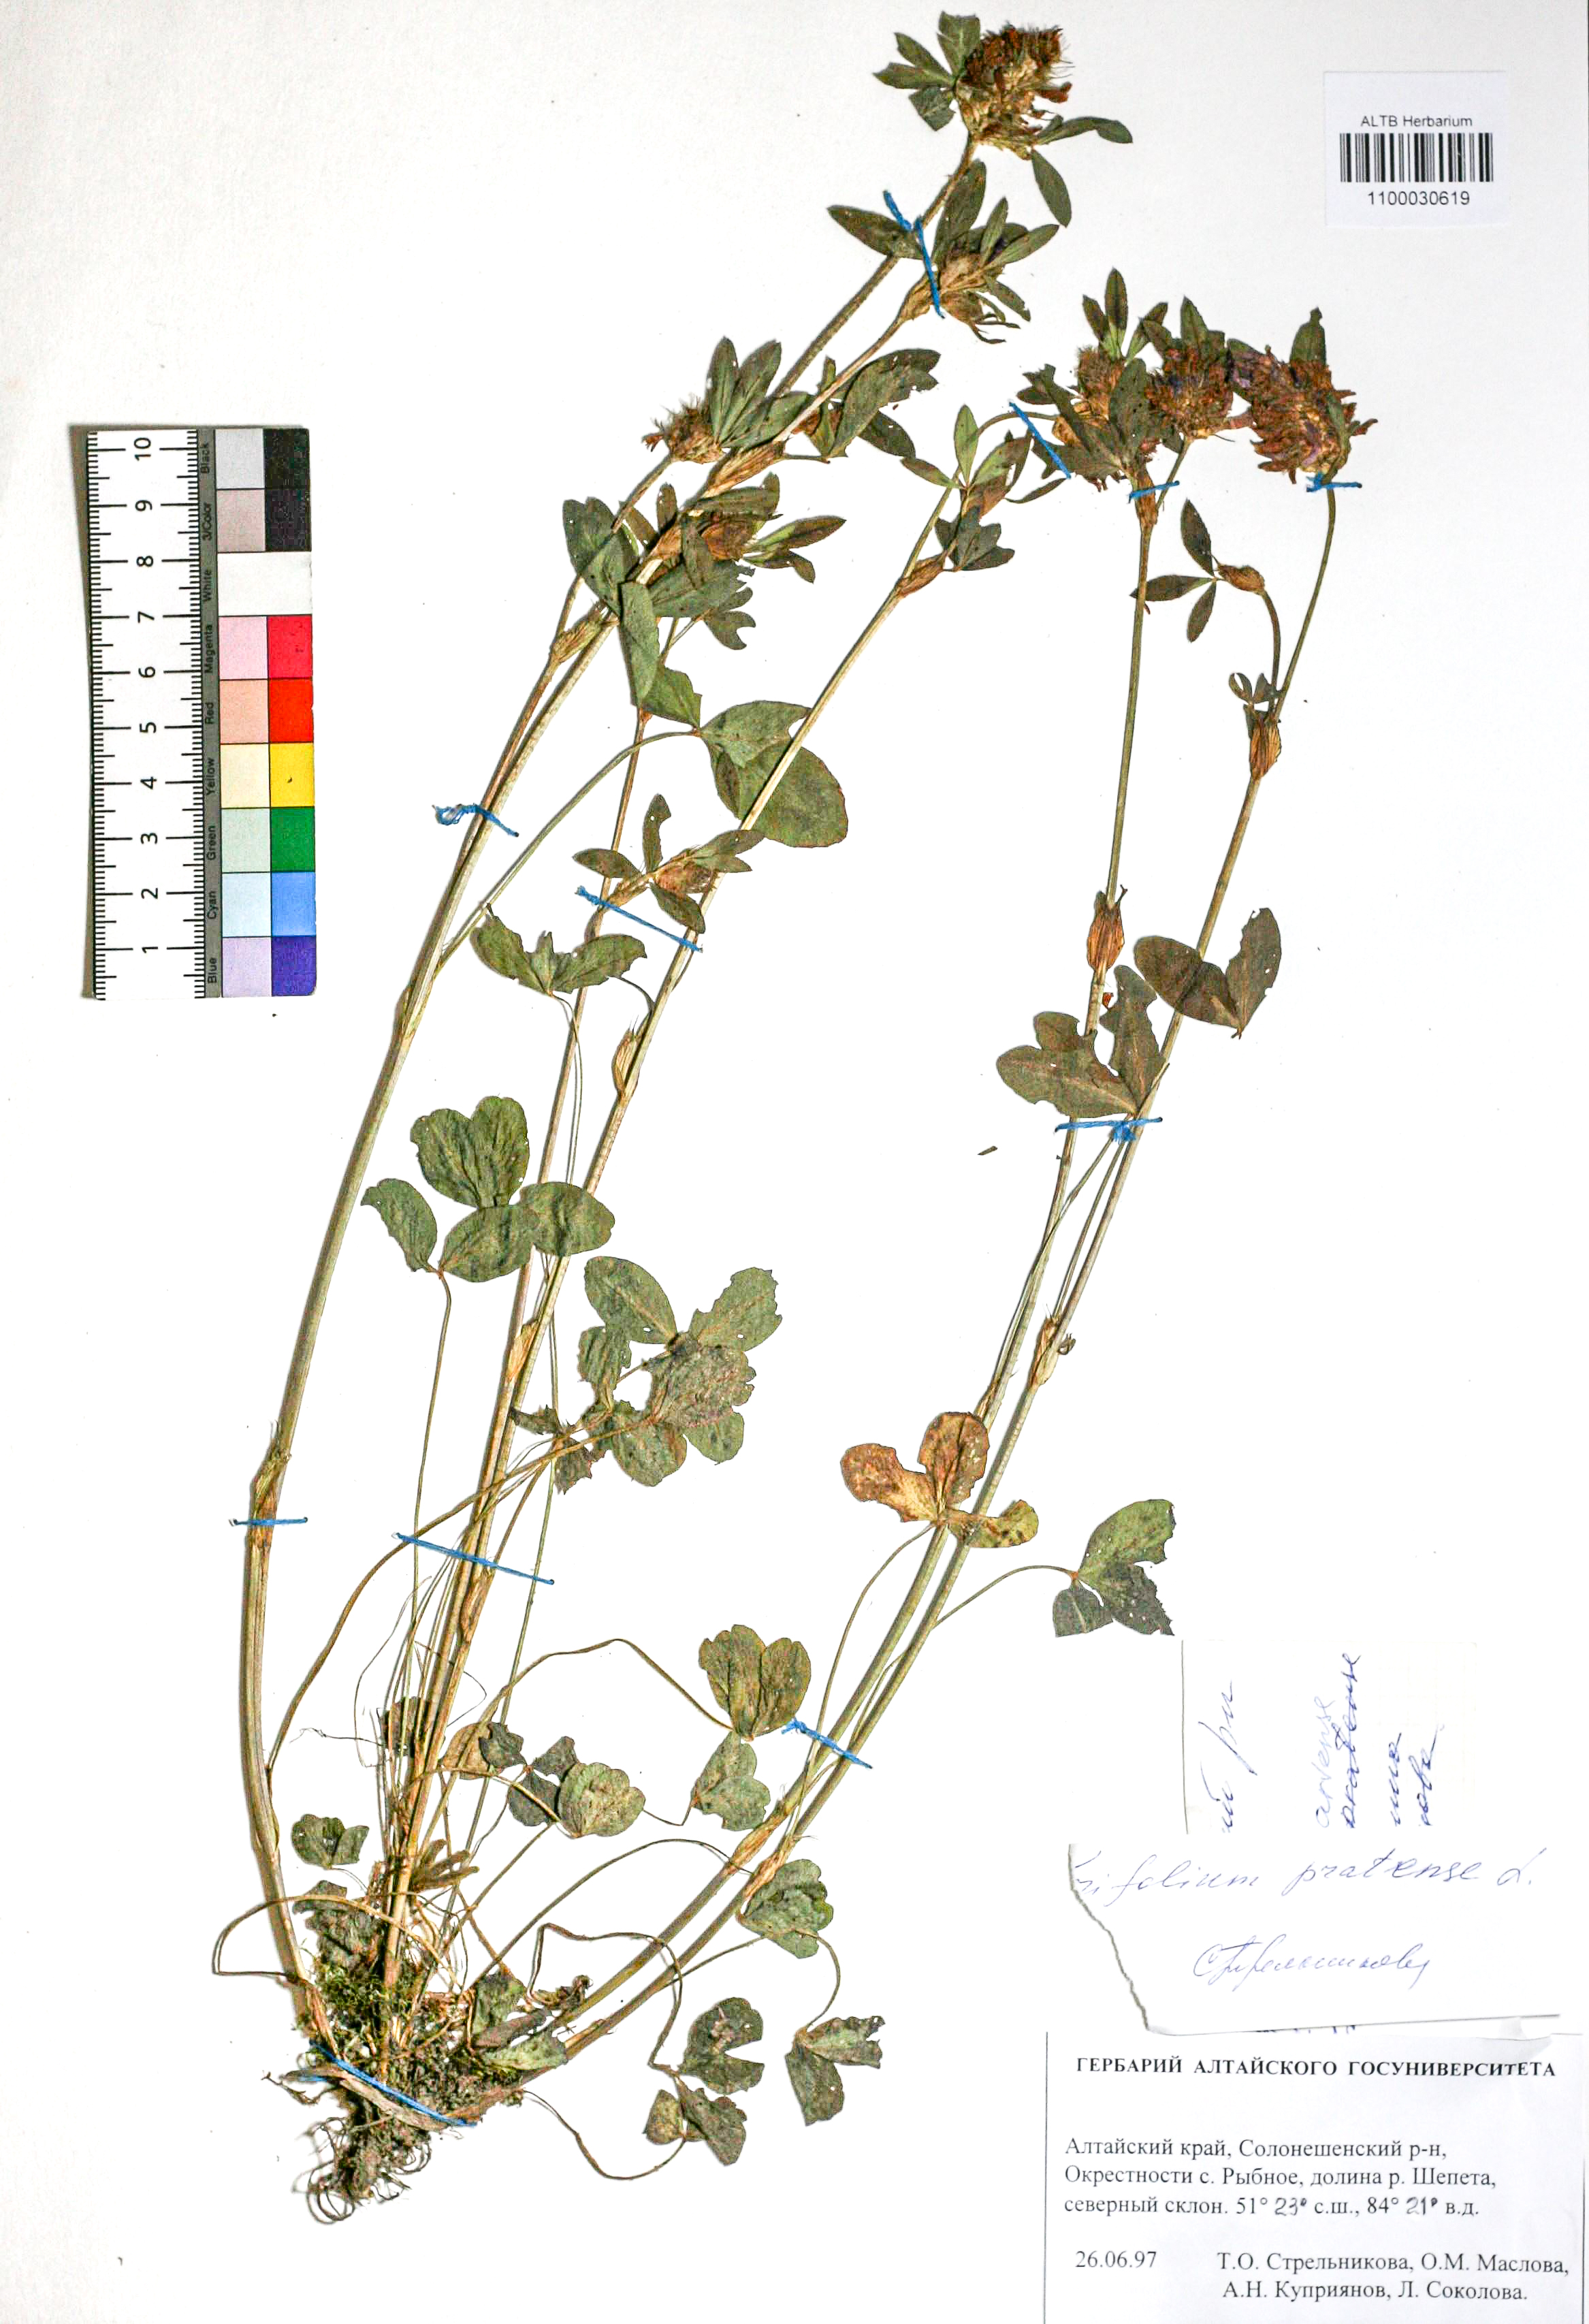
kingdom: Plantae
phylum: Tracheophyta
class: Magnoliopsida
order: Fabales
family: Fabaceae
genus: Trifolium
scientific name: Trifolium pratense
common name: Red clover
